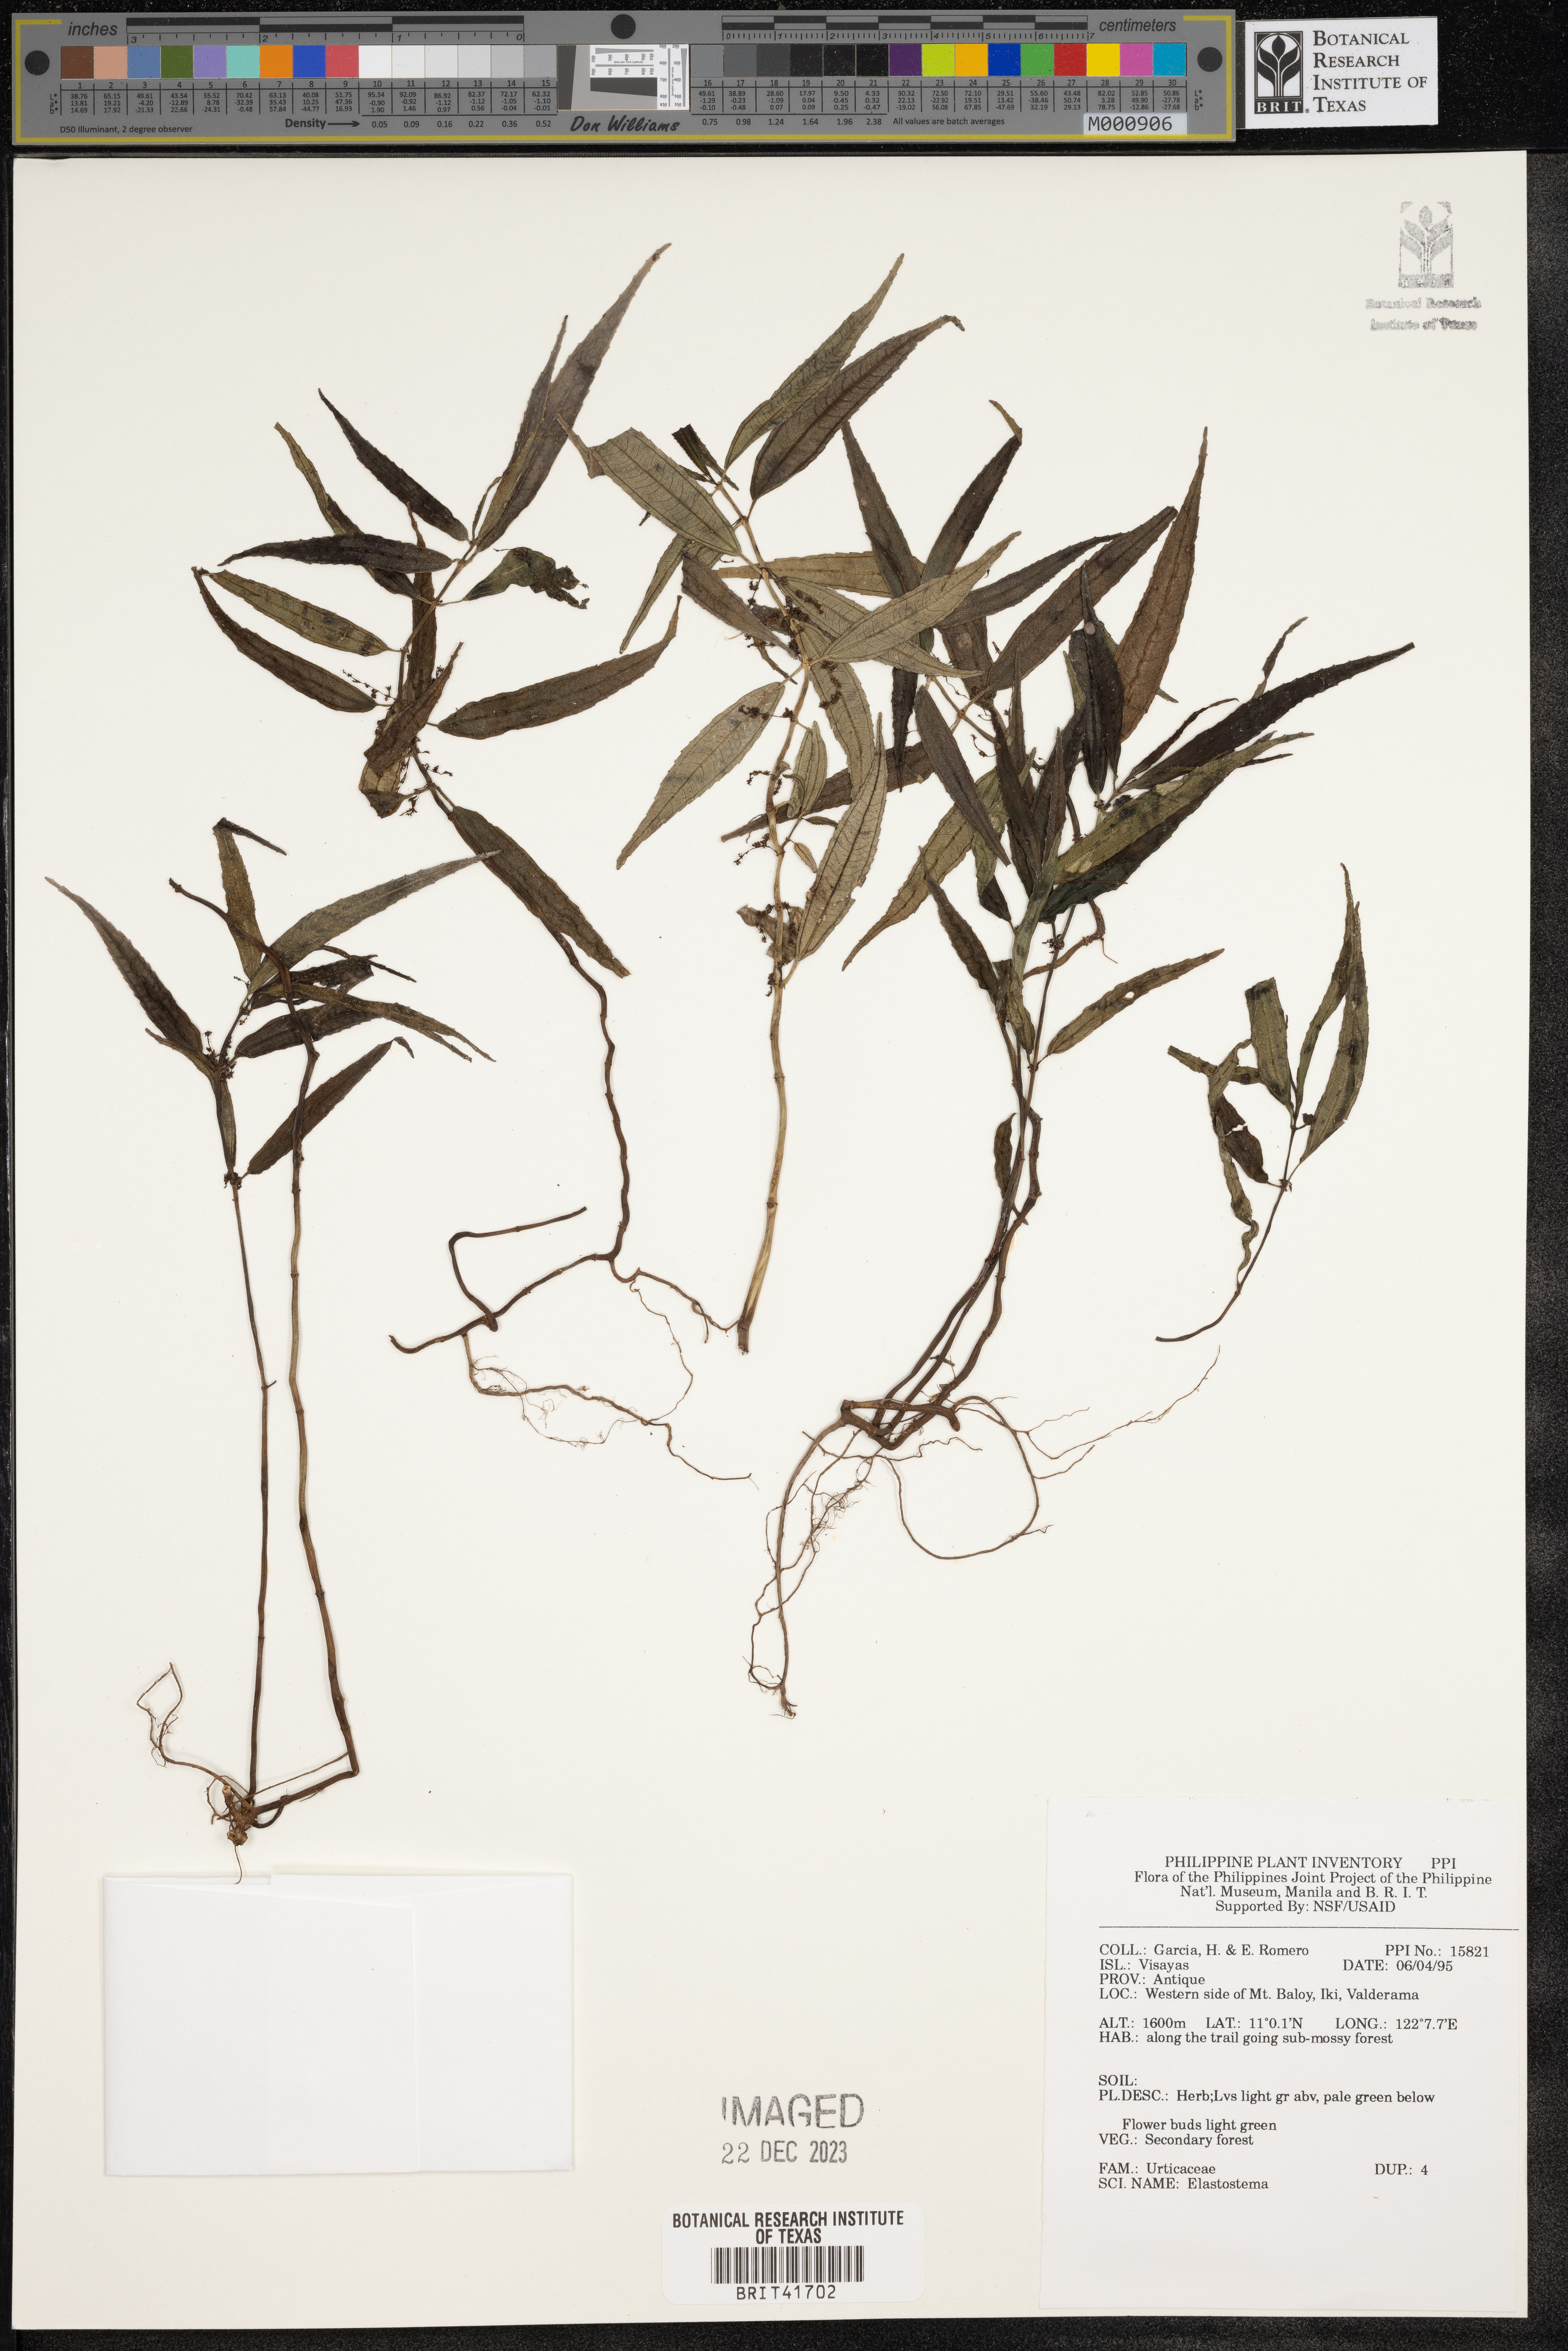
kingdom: Plantae
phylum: Tracheophyta
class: Magnoliopsida
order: Rosales
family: Urticaceae
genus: Elatostema
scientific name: Elatostema
